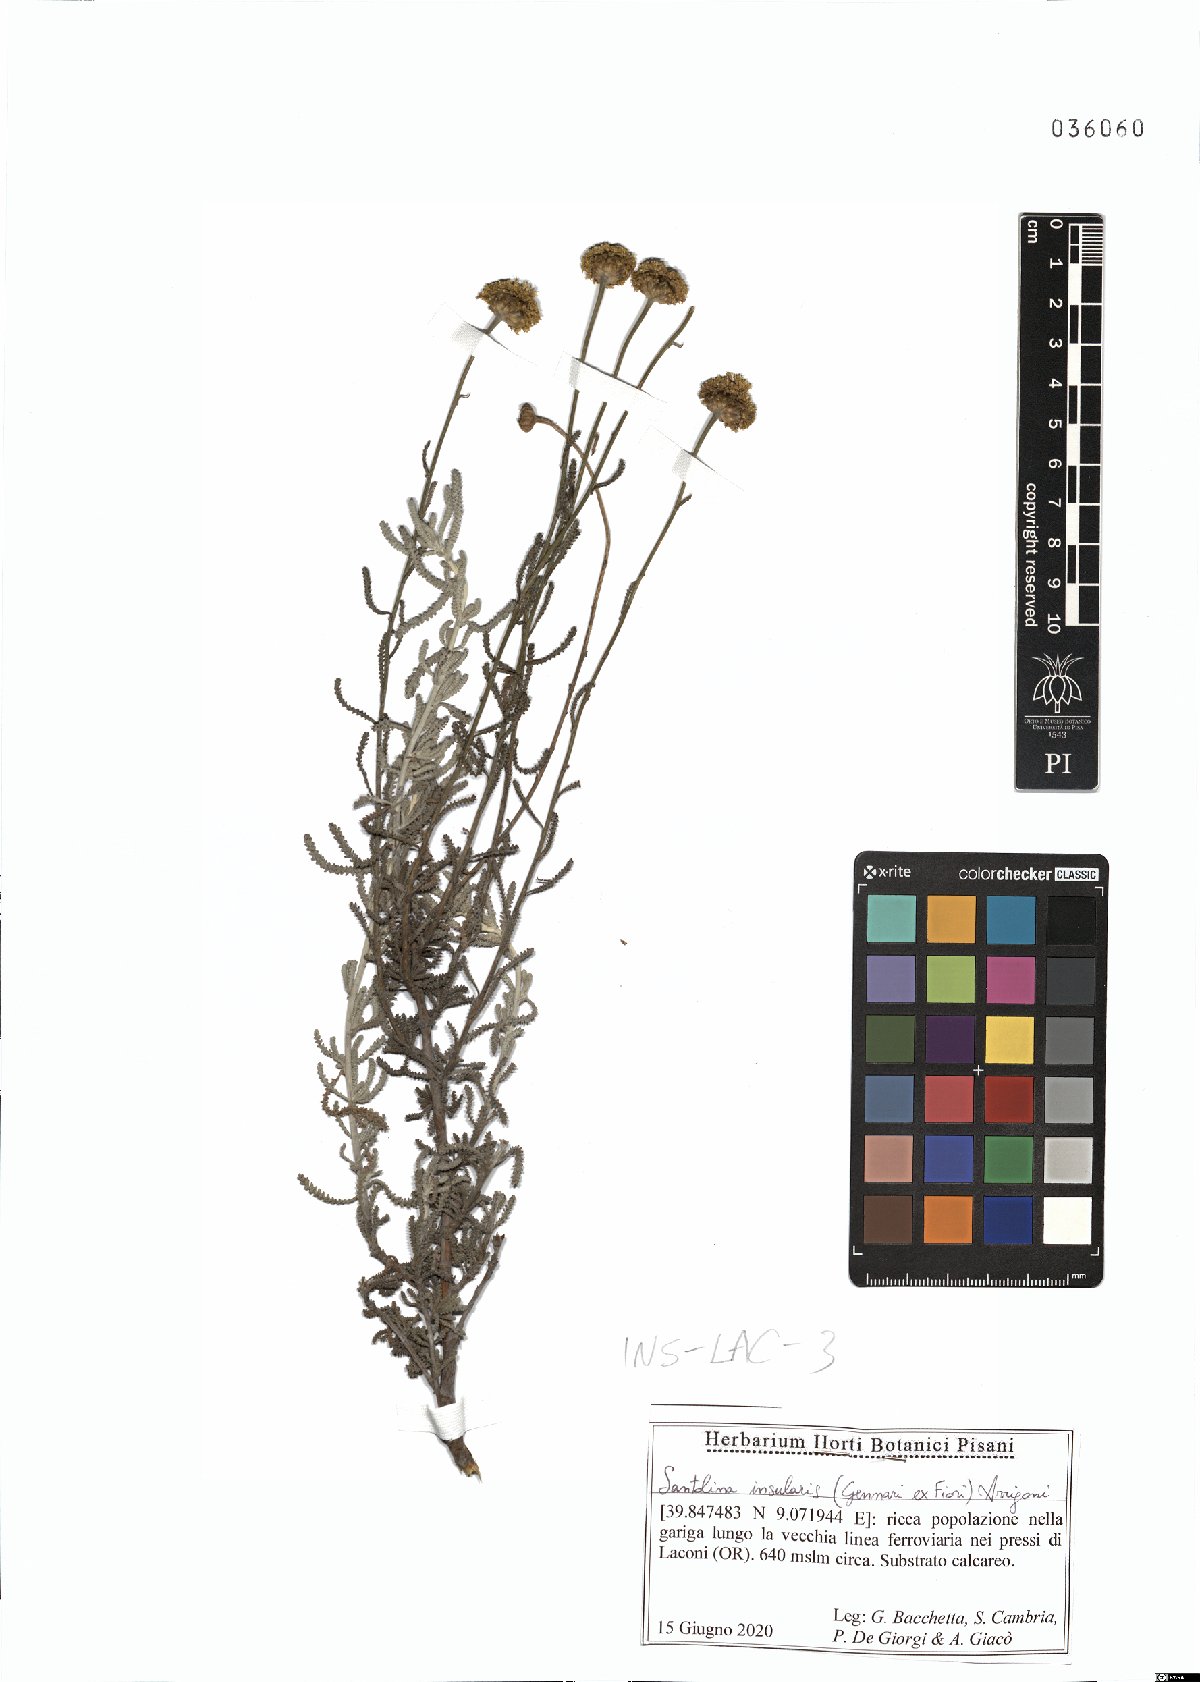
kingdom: Plantae
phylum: Tracheophyta
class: Magnoliopsida
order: Asterales
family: Asteraceae
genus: Santolina
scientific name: Santolina insularis
